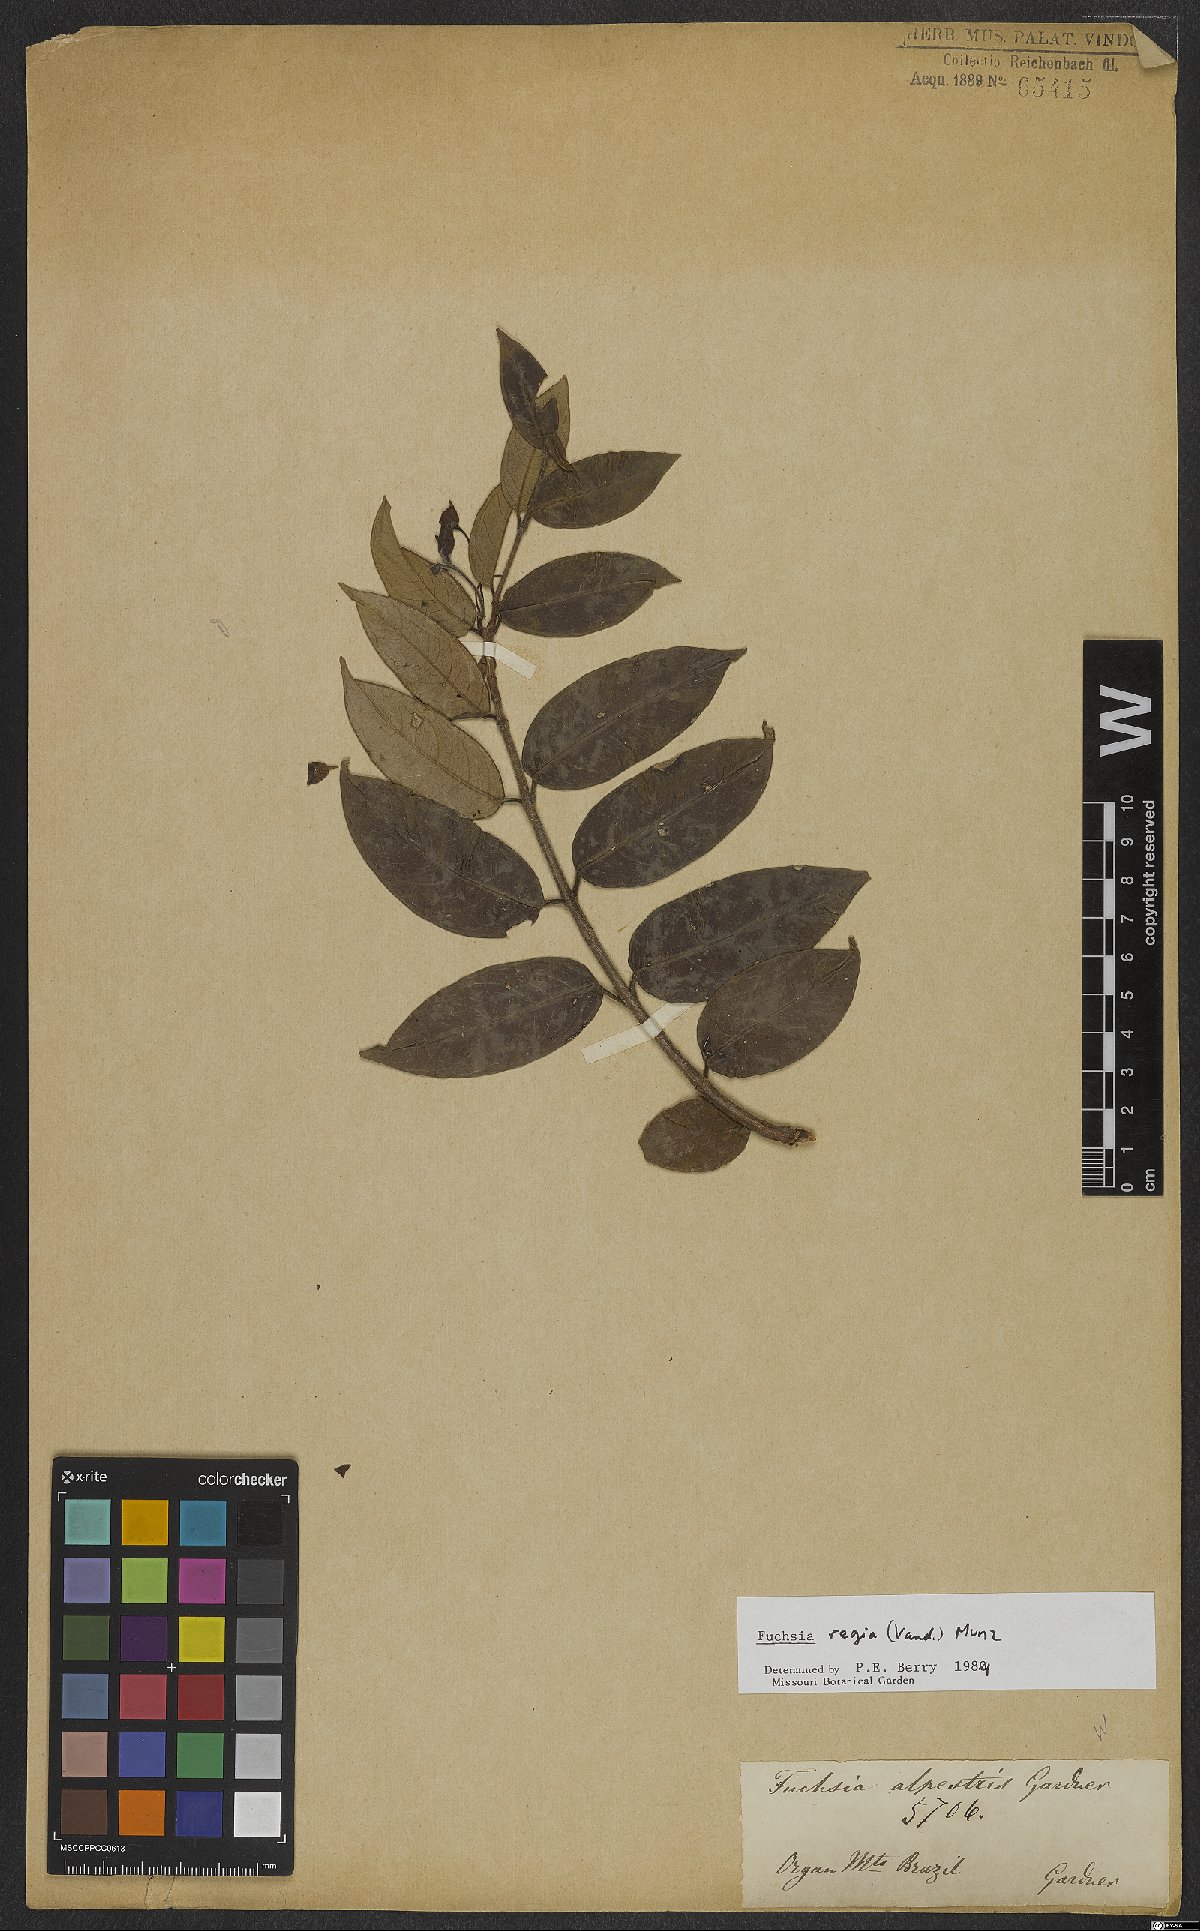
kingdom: Plantae
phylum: Tracheophyta
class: Magnoliopsida
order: Myrtales
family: Onagraceae
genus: Fuchsia
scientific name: Fuchsia regia
